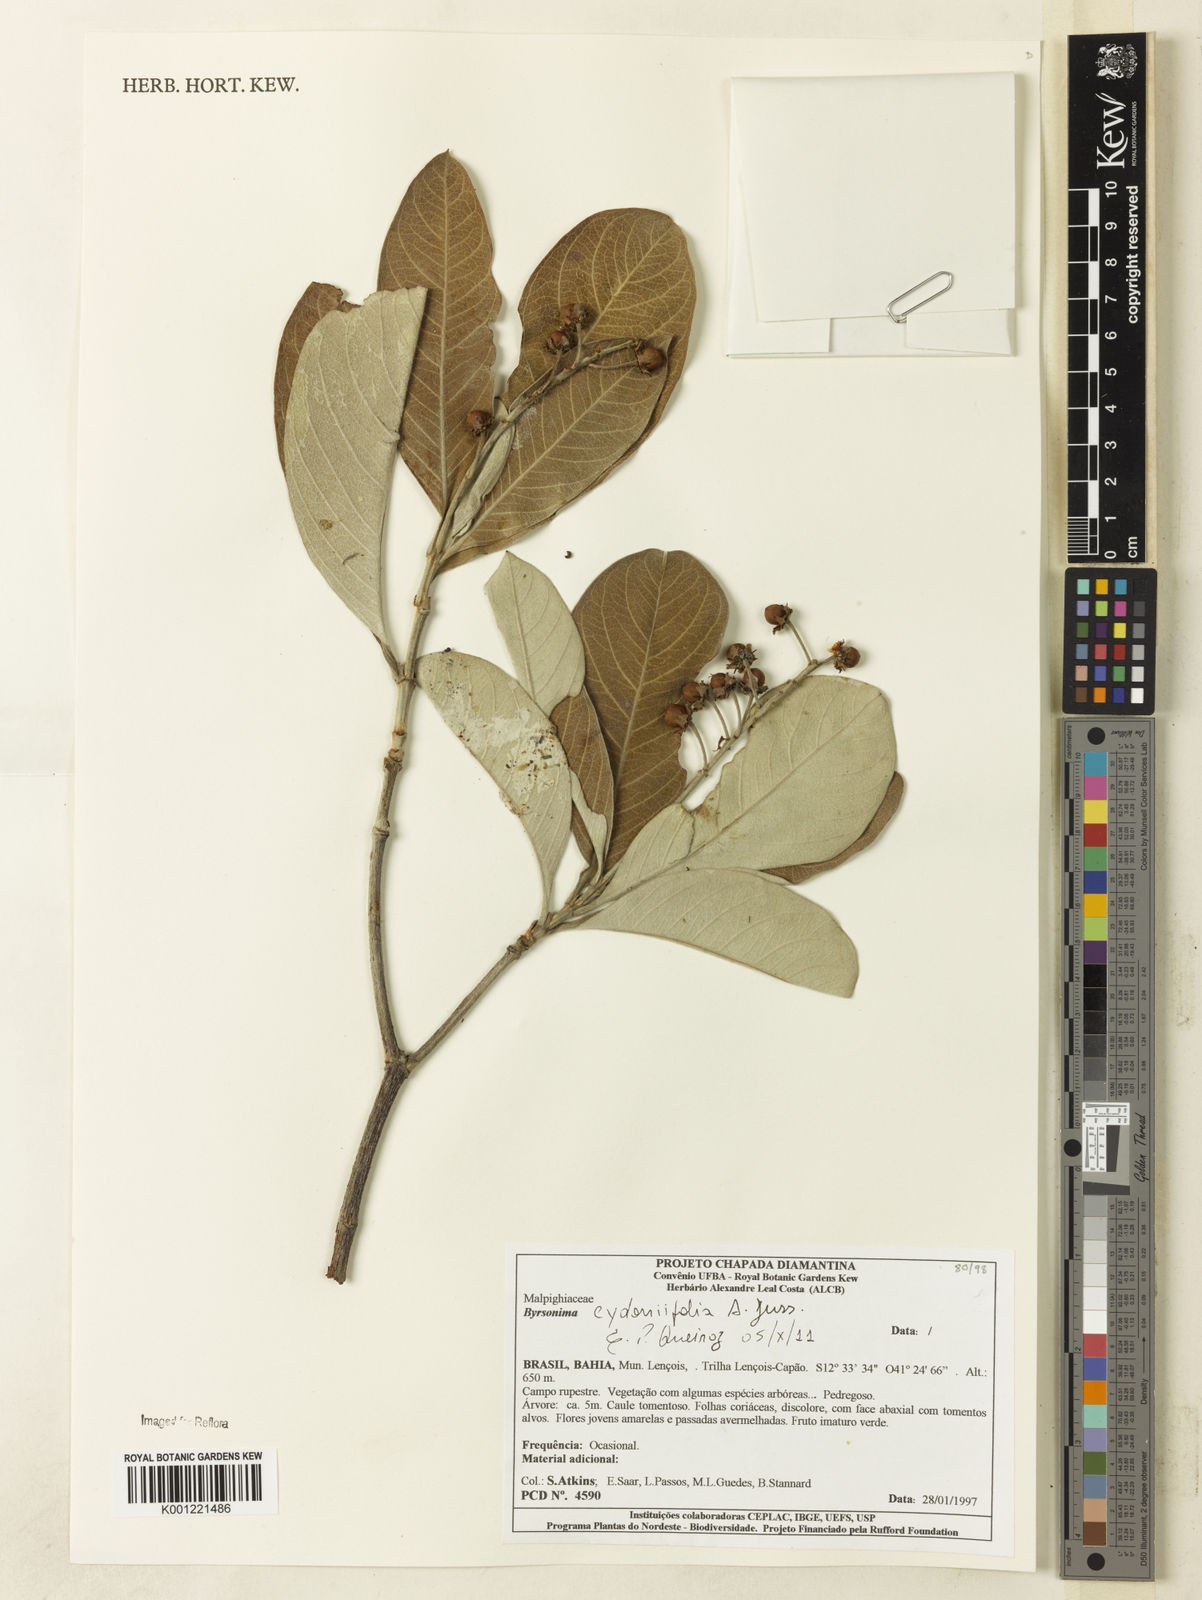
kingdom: Plantae
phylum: Tracheophyta
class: Magnoliopsida
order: Malpighiales
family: Malpighiaceae
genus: Byrsonima
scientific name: Byrsonima cydoniifolia
